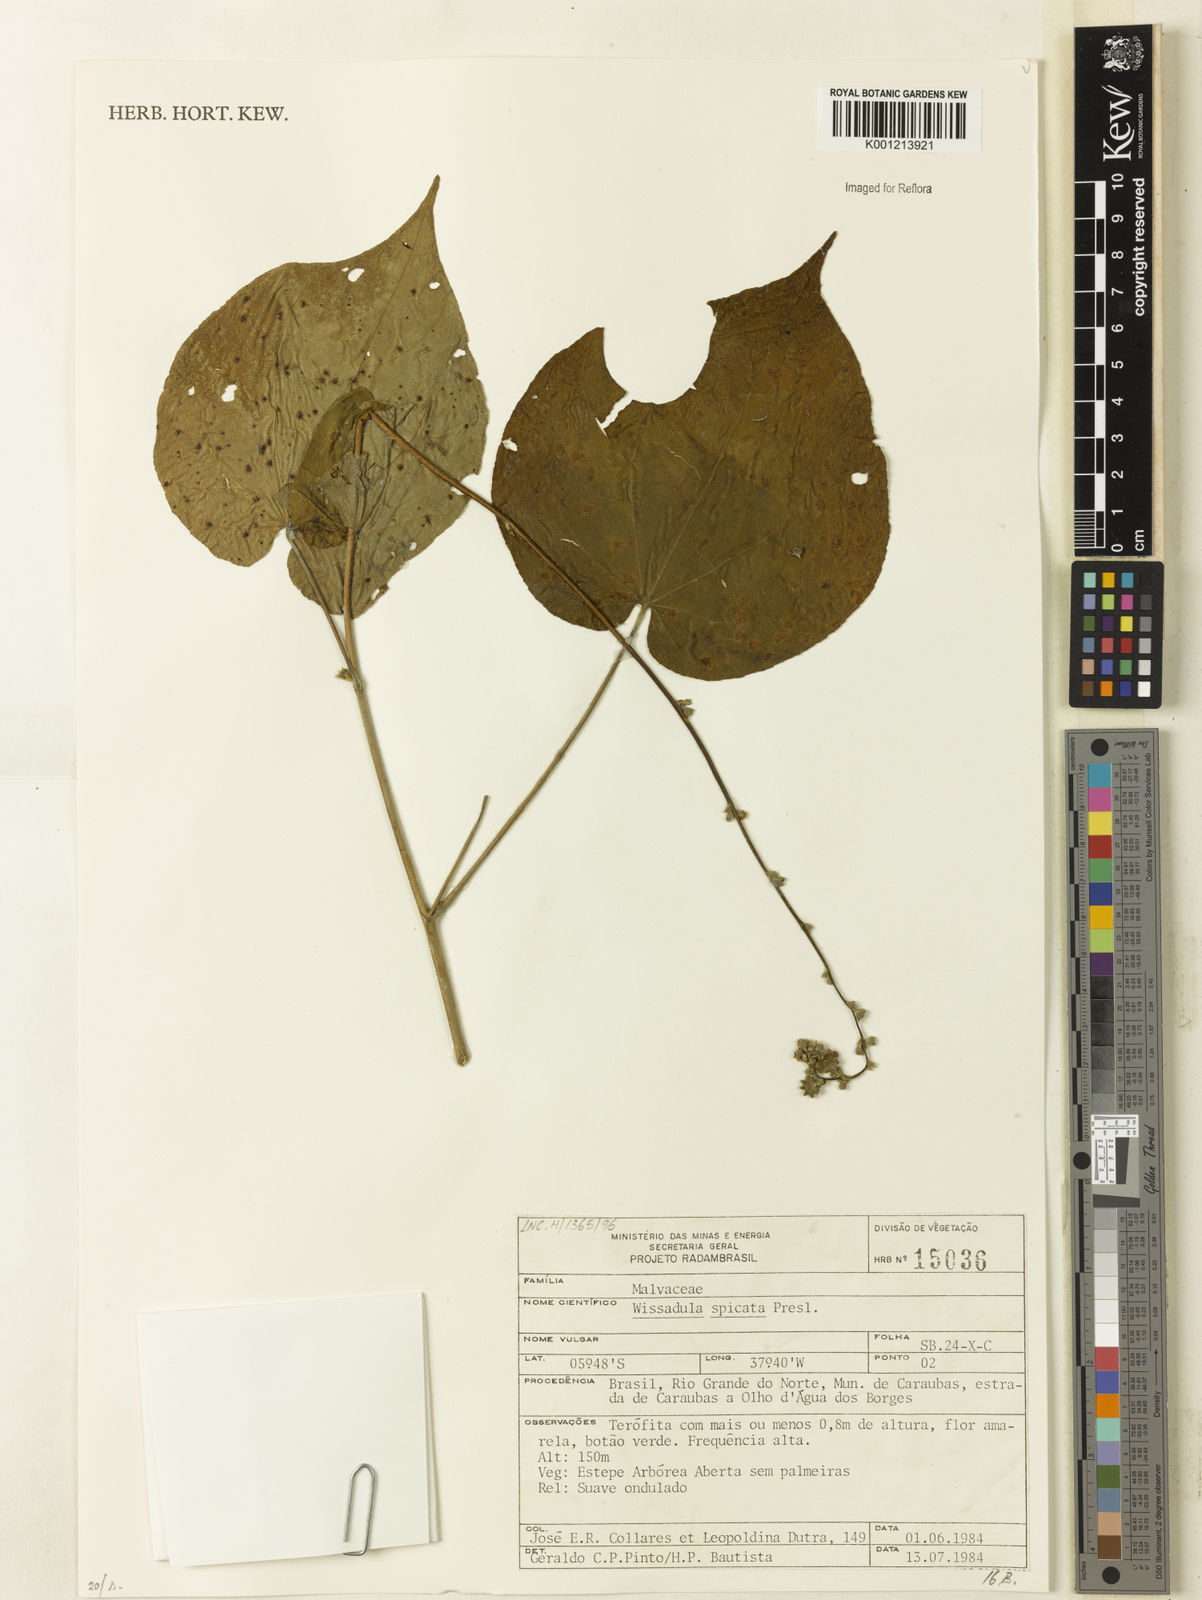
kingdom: Plantae
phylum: Tracheophyta
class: Magnoliopsida
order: Malvales
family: Malvaceae
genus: Allobriquetia
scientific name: Allobriquetia spicata
